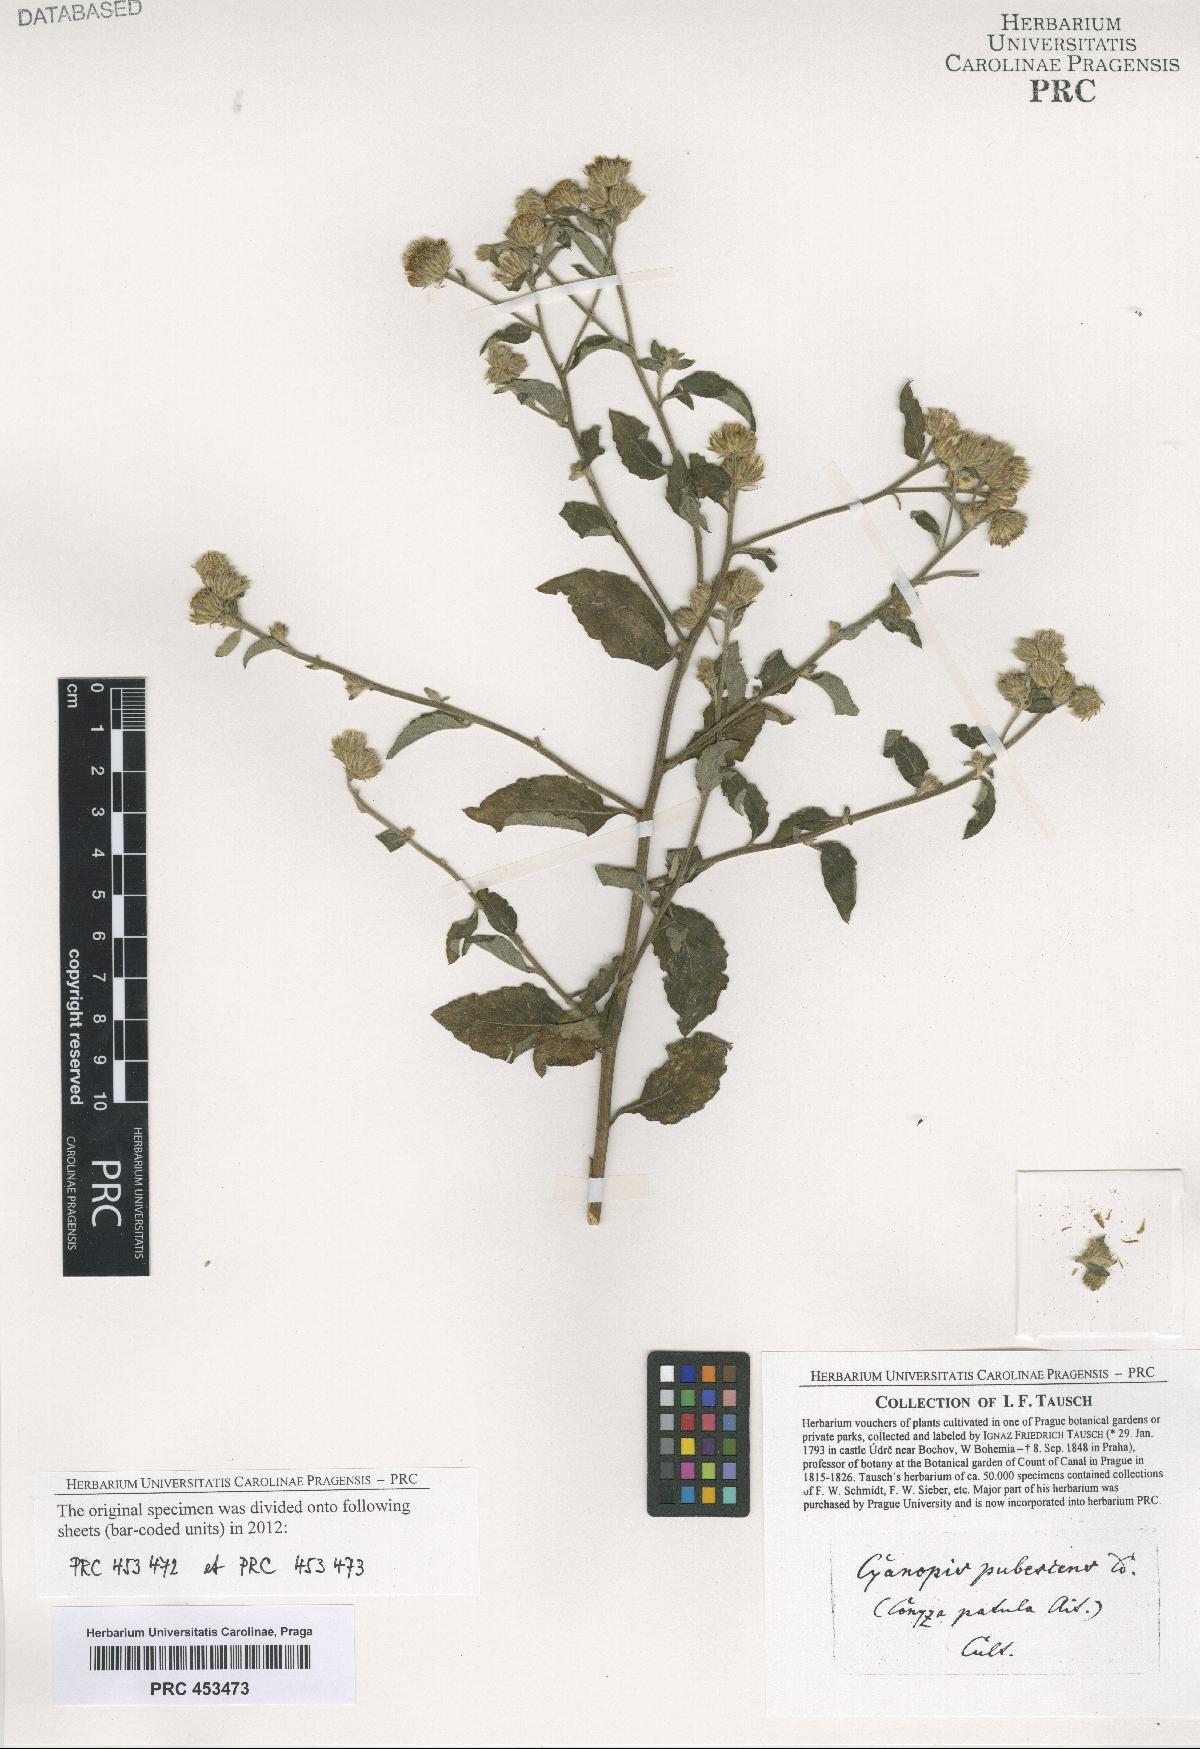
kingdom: Plantae
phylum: Tracheophyta
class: Magnoliopsida
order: Asterales
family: Asteraceae
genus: Vernonia
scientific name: Vernonia
